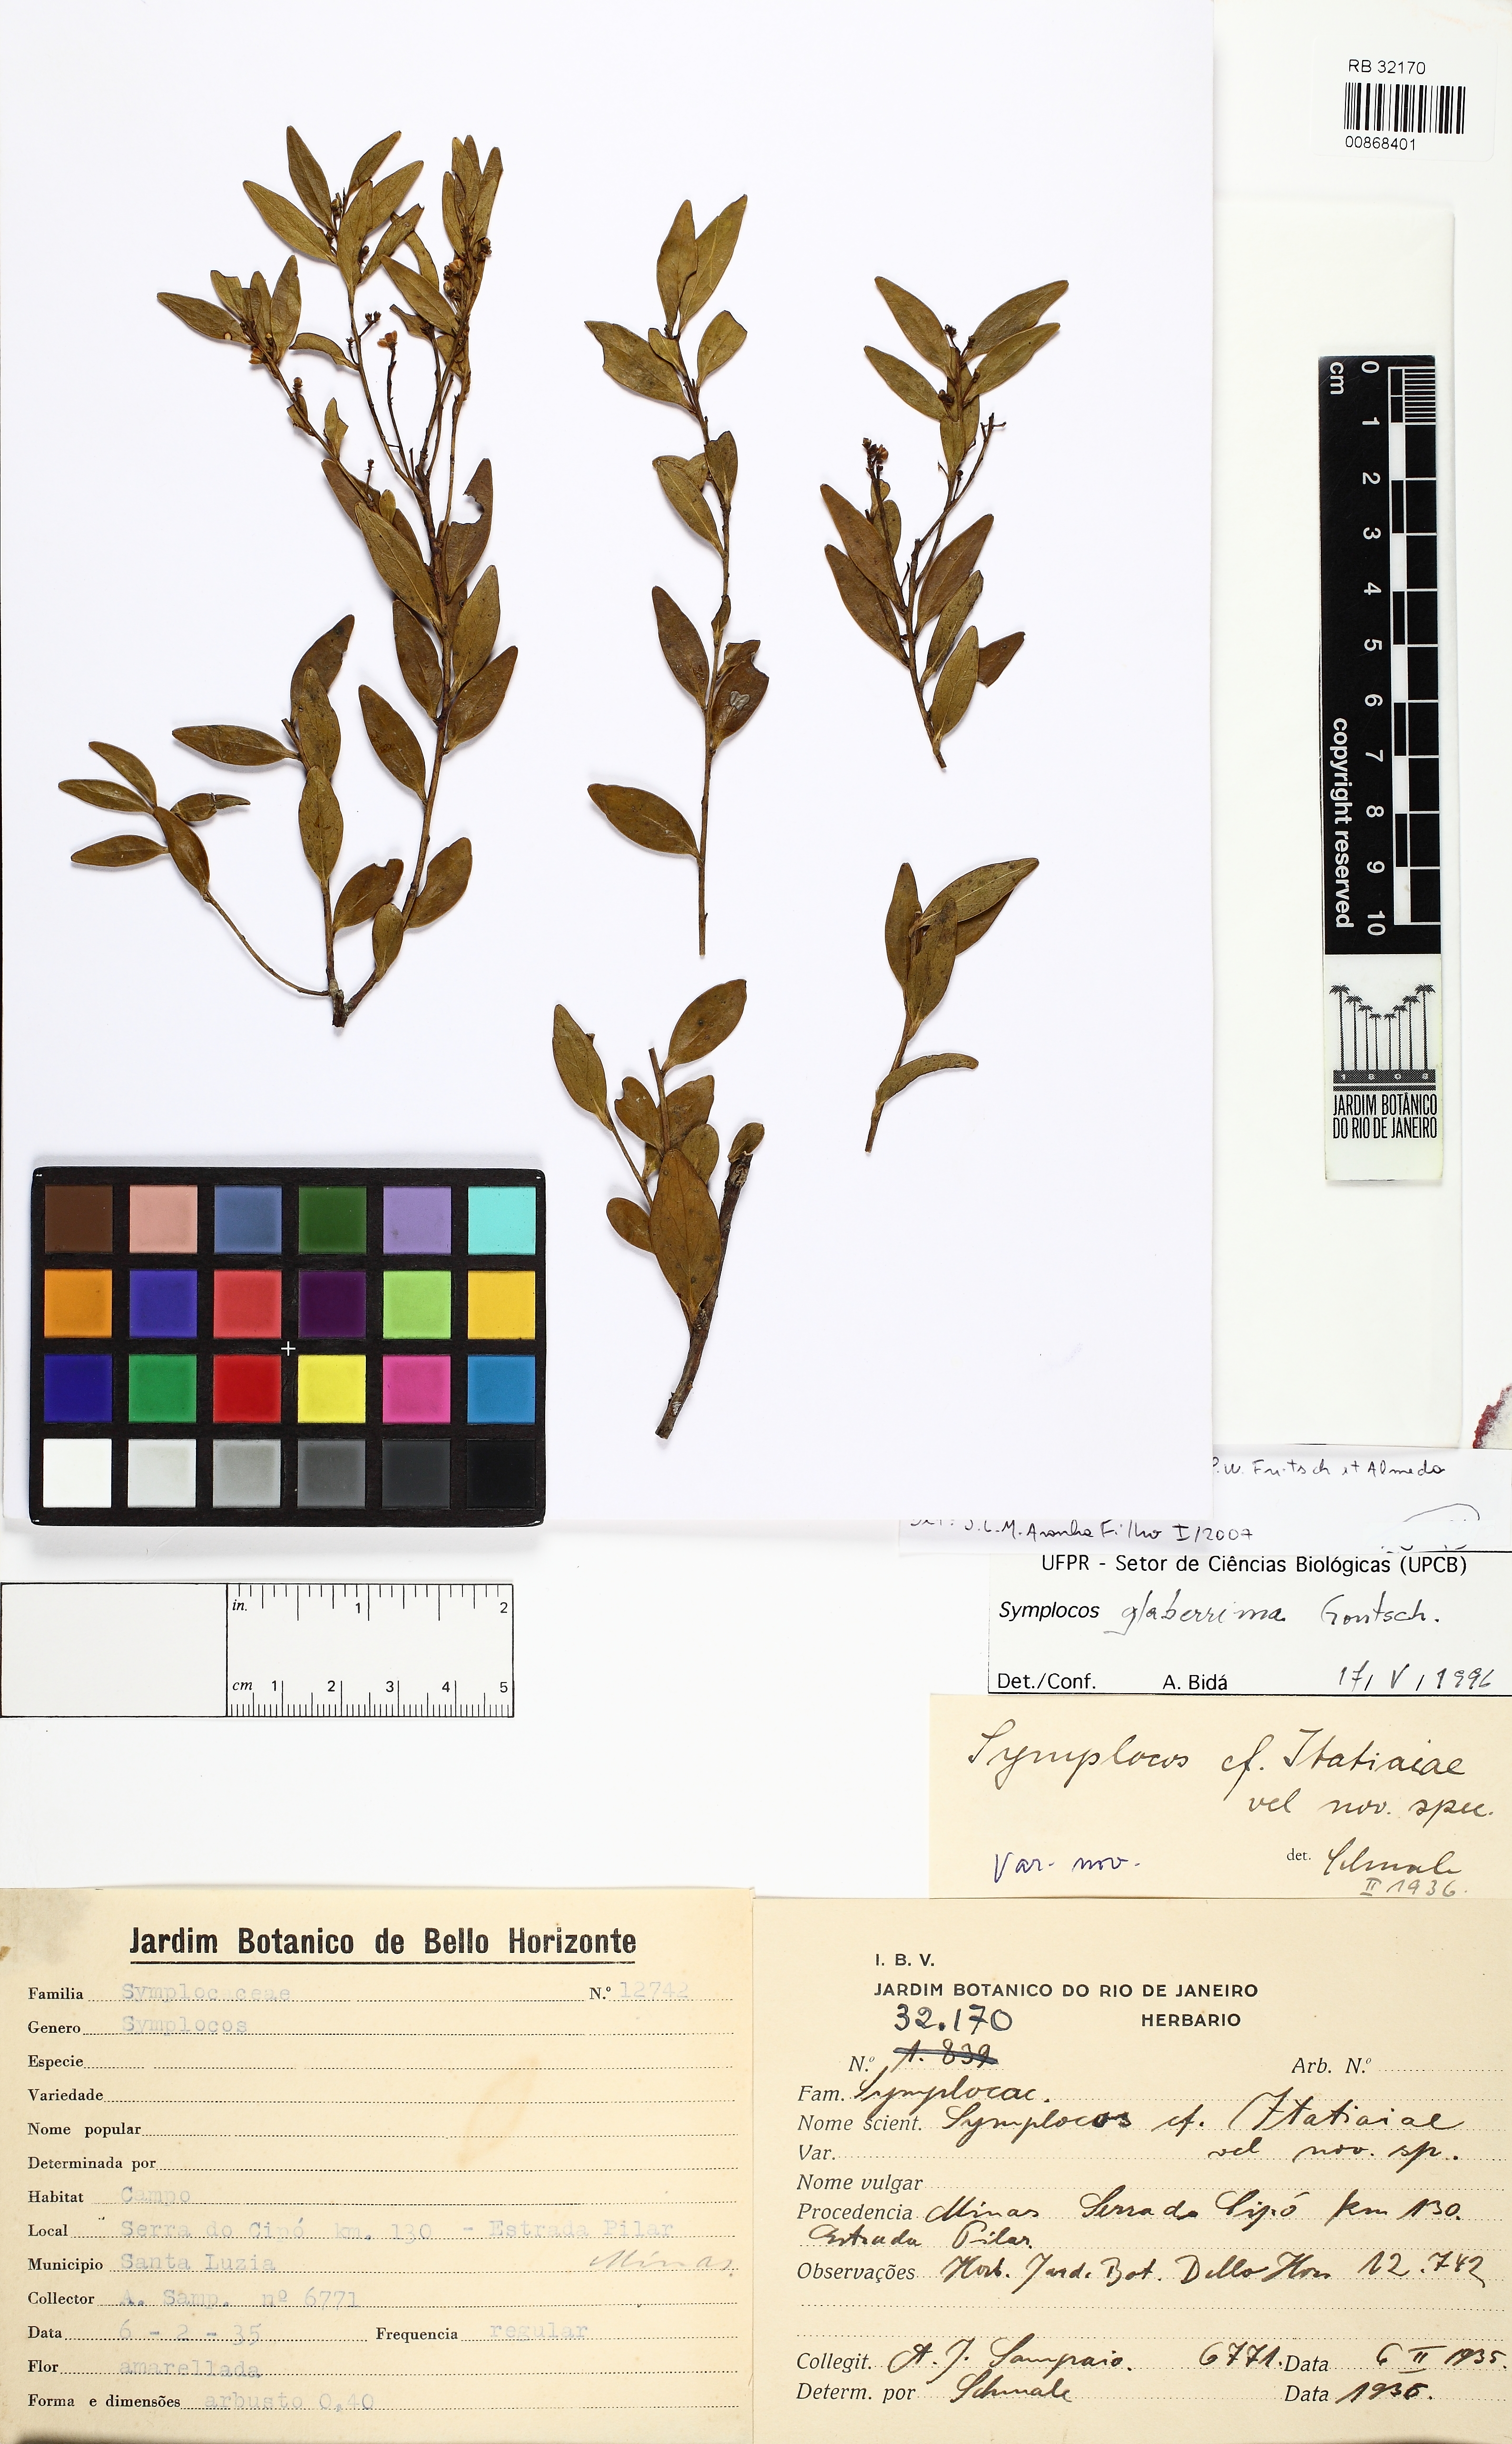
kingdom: Plantae
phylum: Tracheophyta
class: Magnoliopsida
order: Ericales
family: Symplocaceae
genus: Symplocos
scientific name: Symplocos saxatilis
